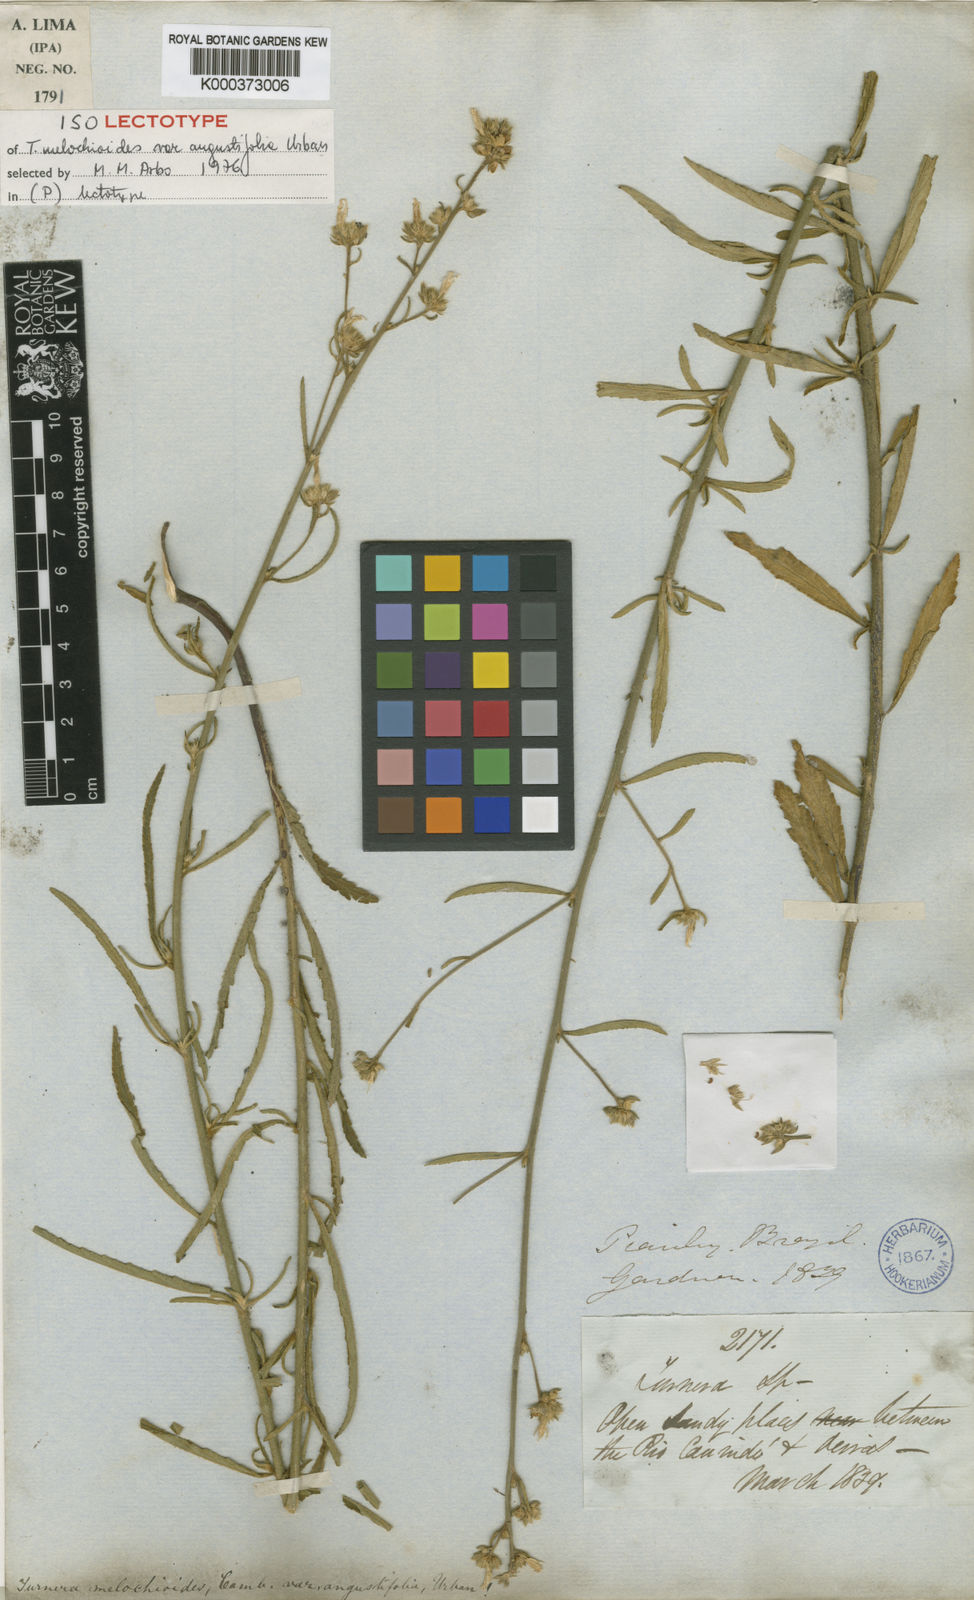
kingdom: Plantae
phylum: Tracheophyta
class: Magnoliopsida
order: Malpighiales
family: Turneraceae
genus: Turnera
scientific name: Turnera arenaria
